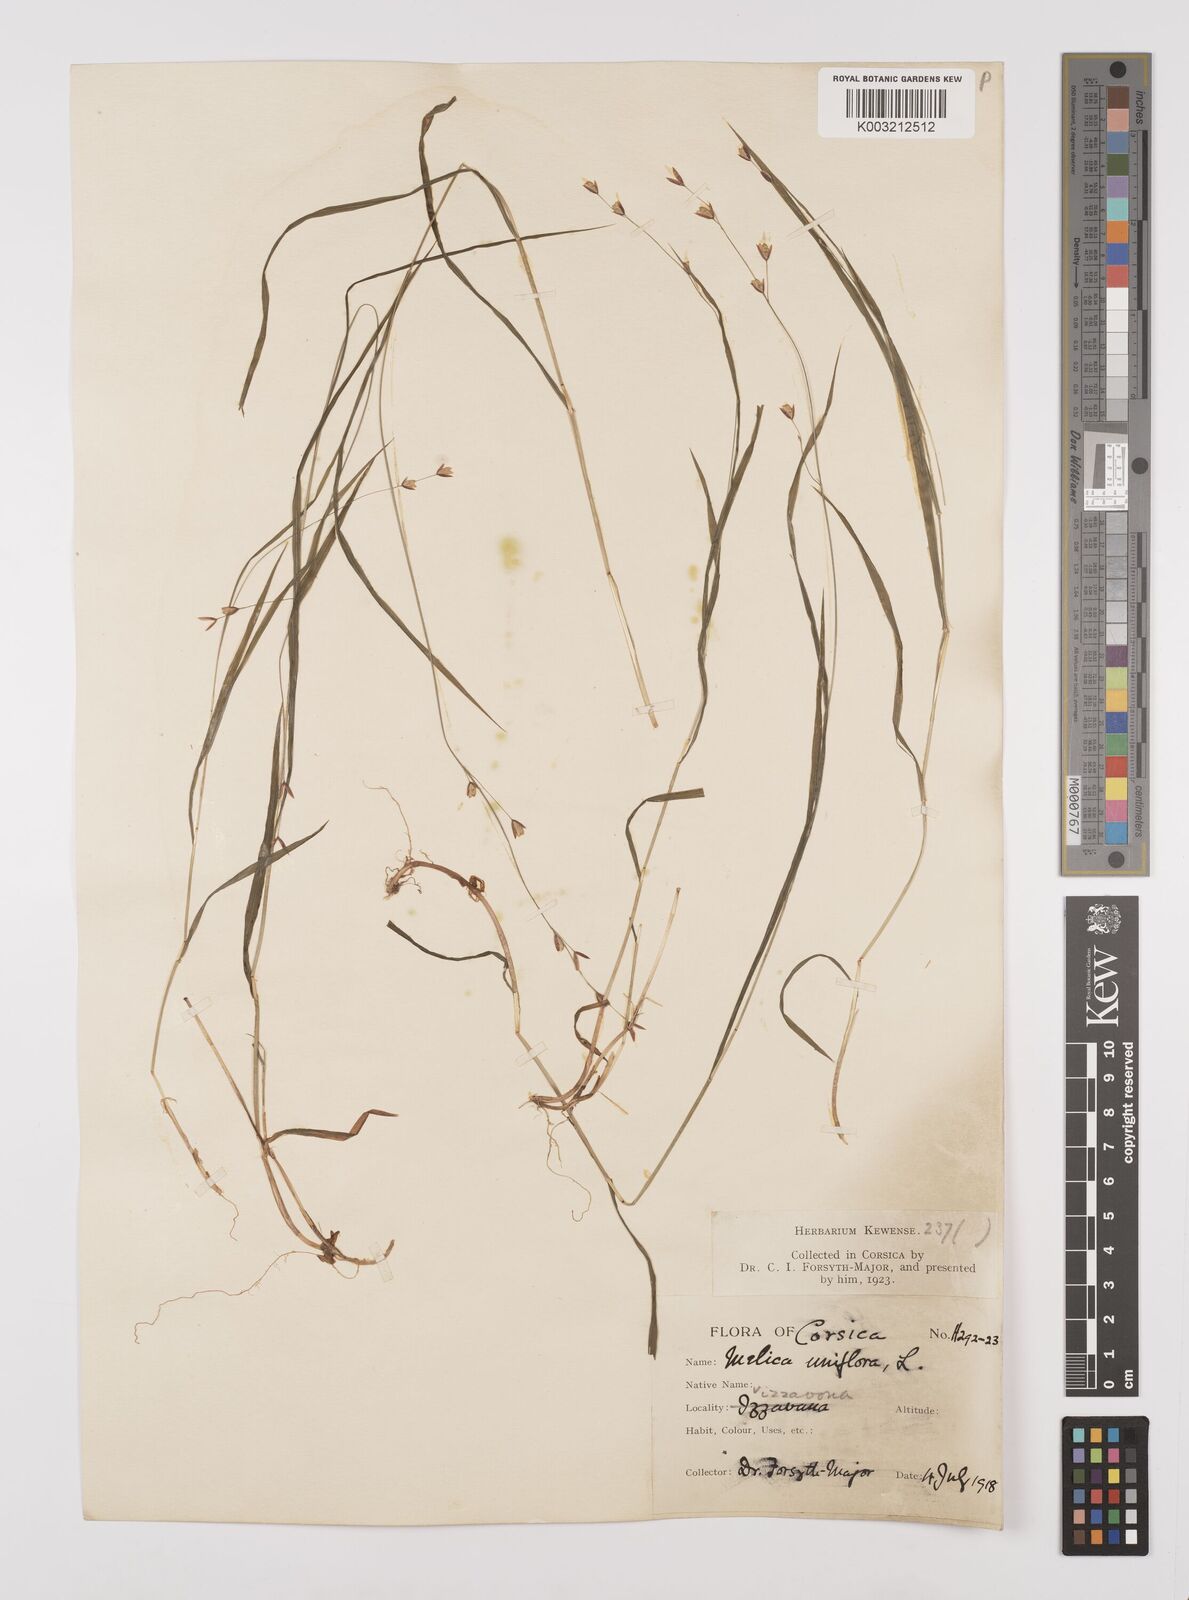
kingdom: Plantae
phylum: Tracheophyta
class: Liliopsida
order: Poales
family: Poaceae
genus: Melica
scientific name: Melica uniflora
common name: Wood melick
